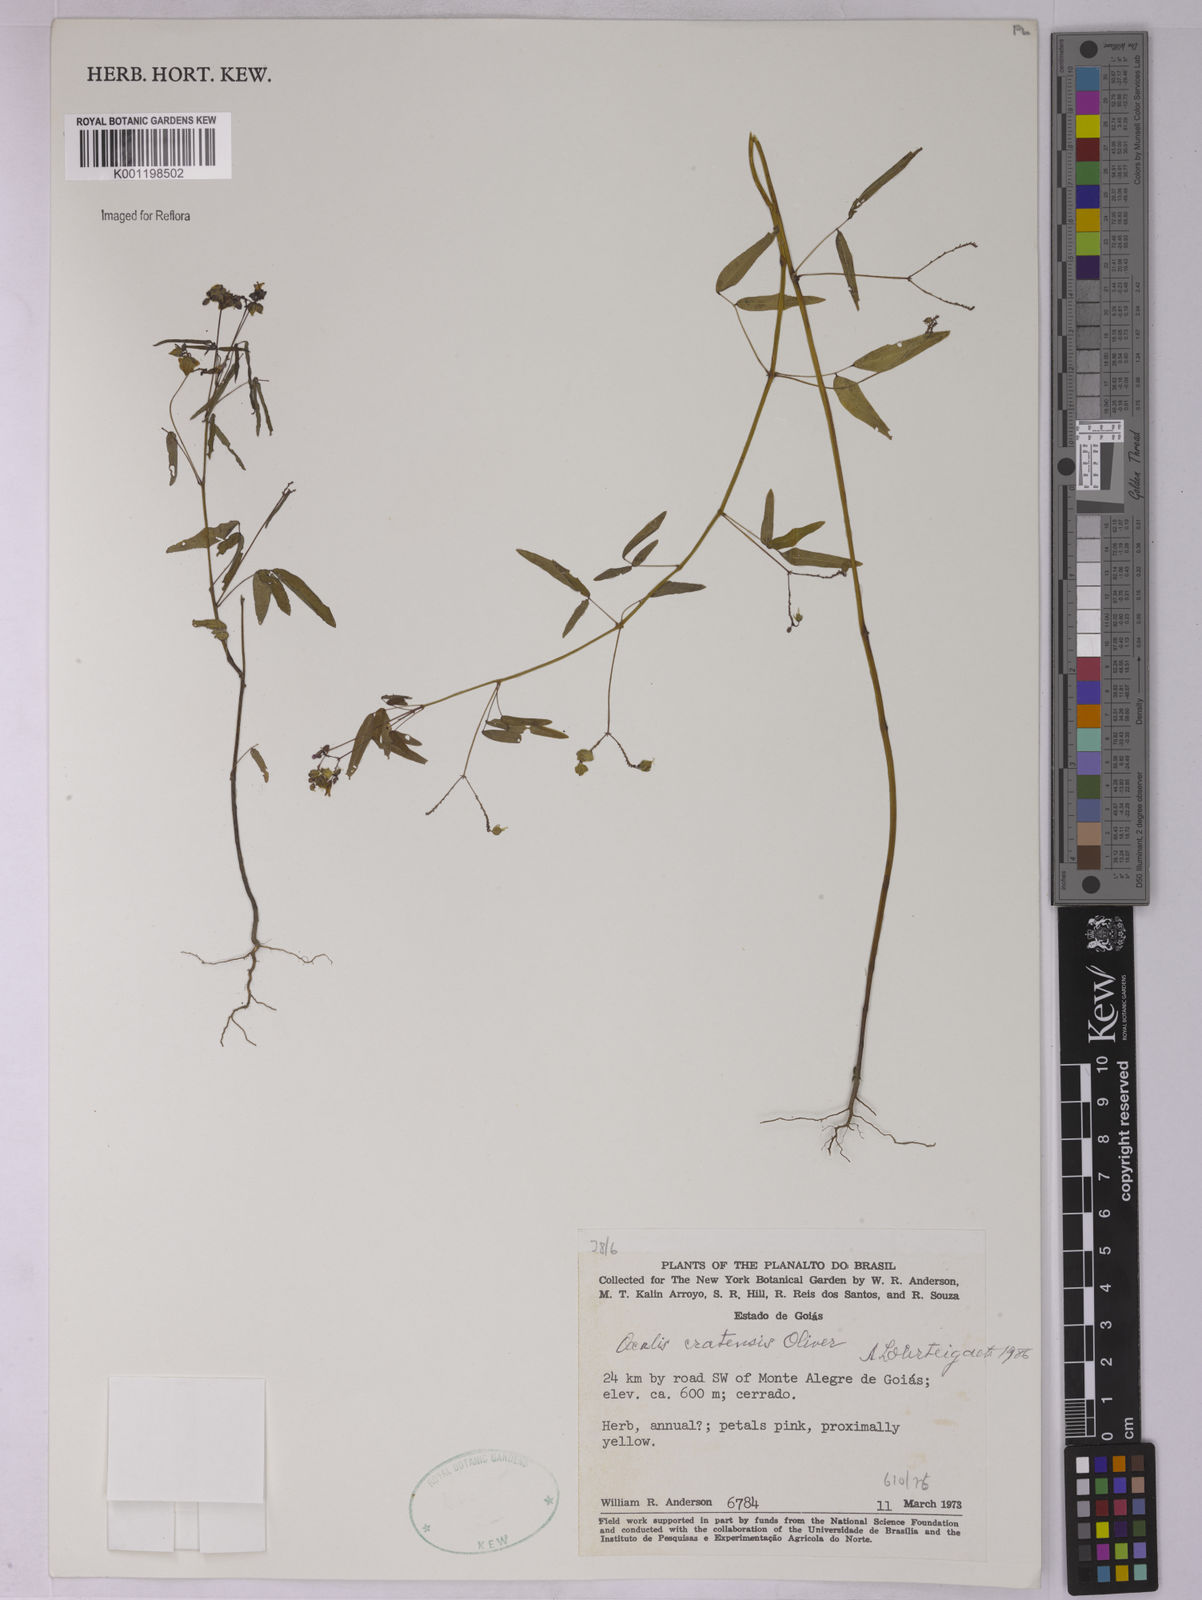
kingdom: Plantae
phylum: Tracheophyta
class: Magnoliopsida
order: Oxalidales
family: Oxalidaceae
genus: Oxalis
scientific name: Oxalis cratensis
